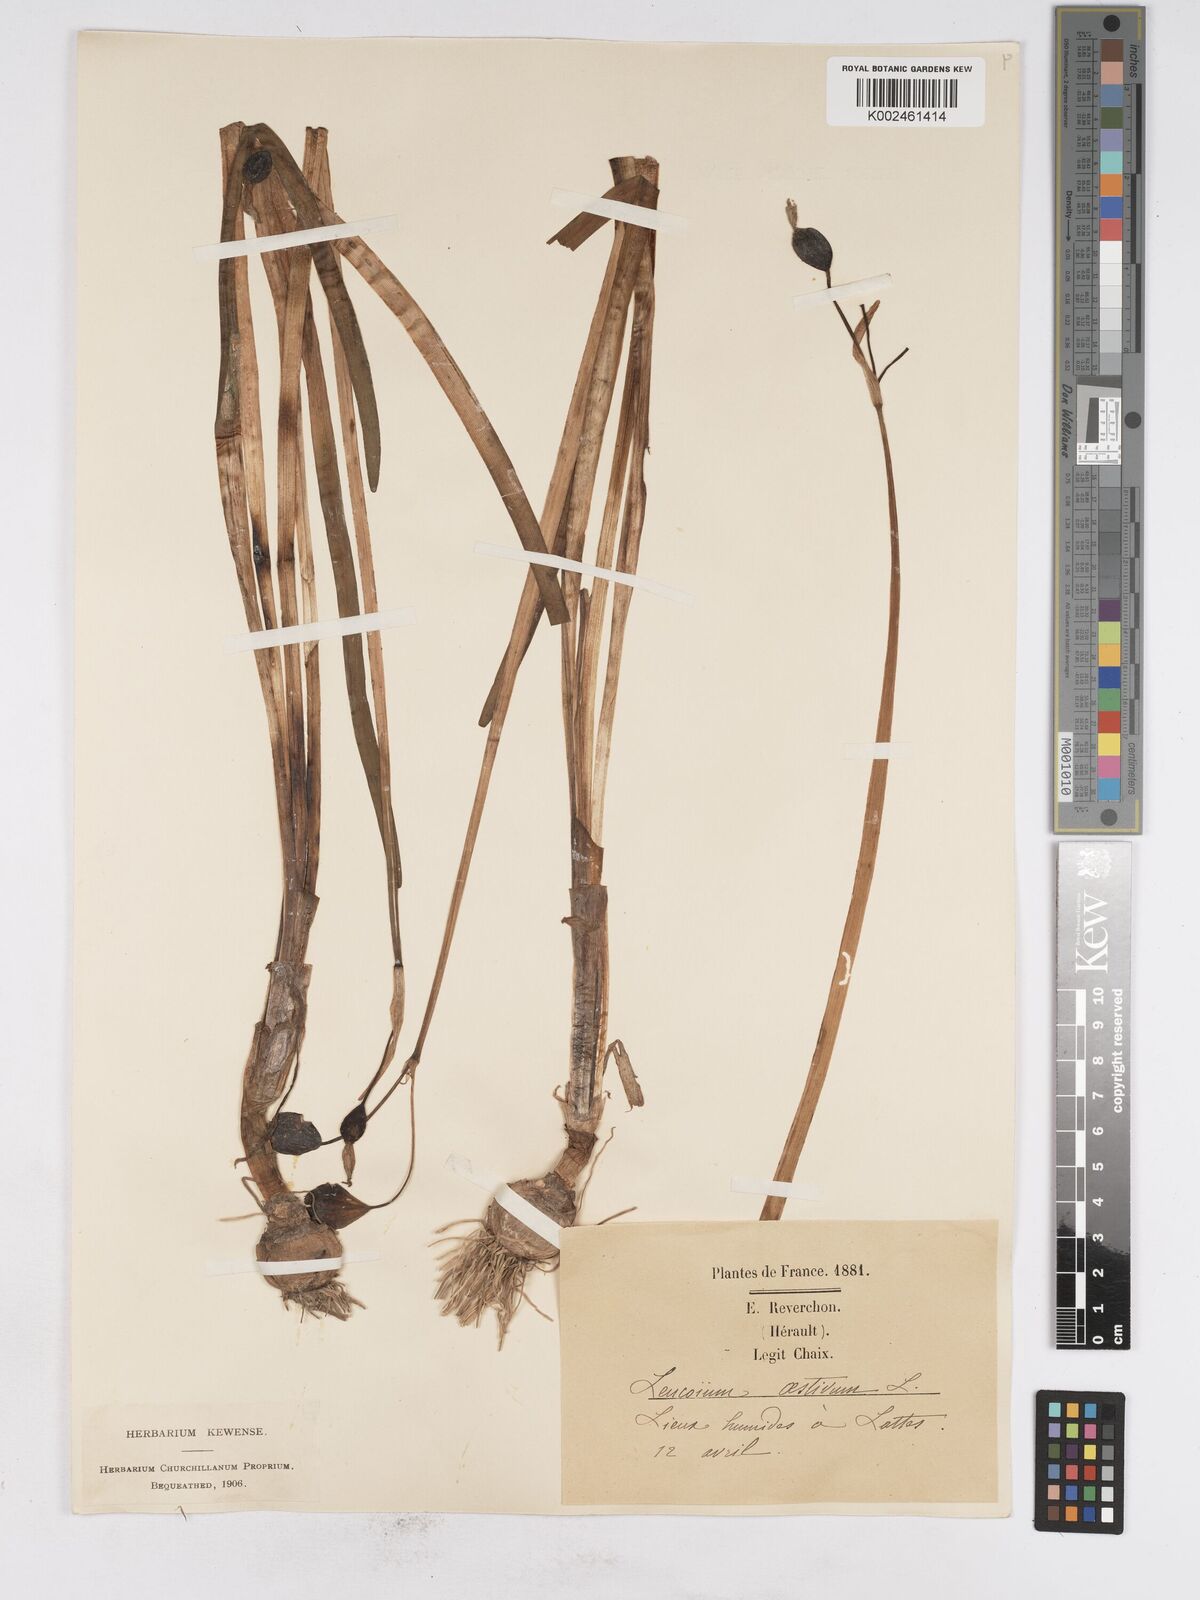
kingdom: Plantae
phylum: Tracheophyta
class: Liliopsida
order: Asparagales
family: Amaryllidaceae
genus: Leucojum
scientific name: Leucojum aestivum
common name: Summer snowflake
